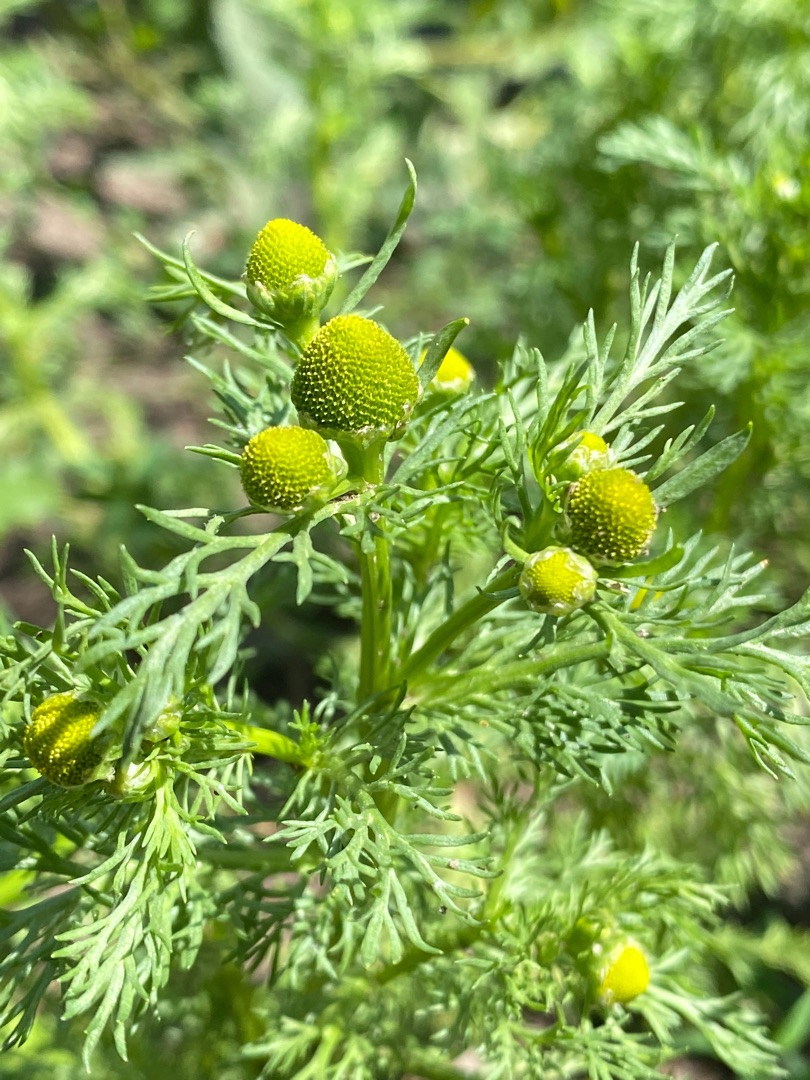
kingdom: Plantae
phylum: Tracheophyta
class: Magnoliopsida
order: Asterales
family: Asteraceae
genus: Matricaria
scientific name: Matricaria discoidea
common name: Skive-kamille
